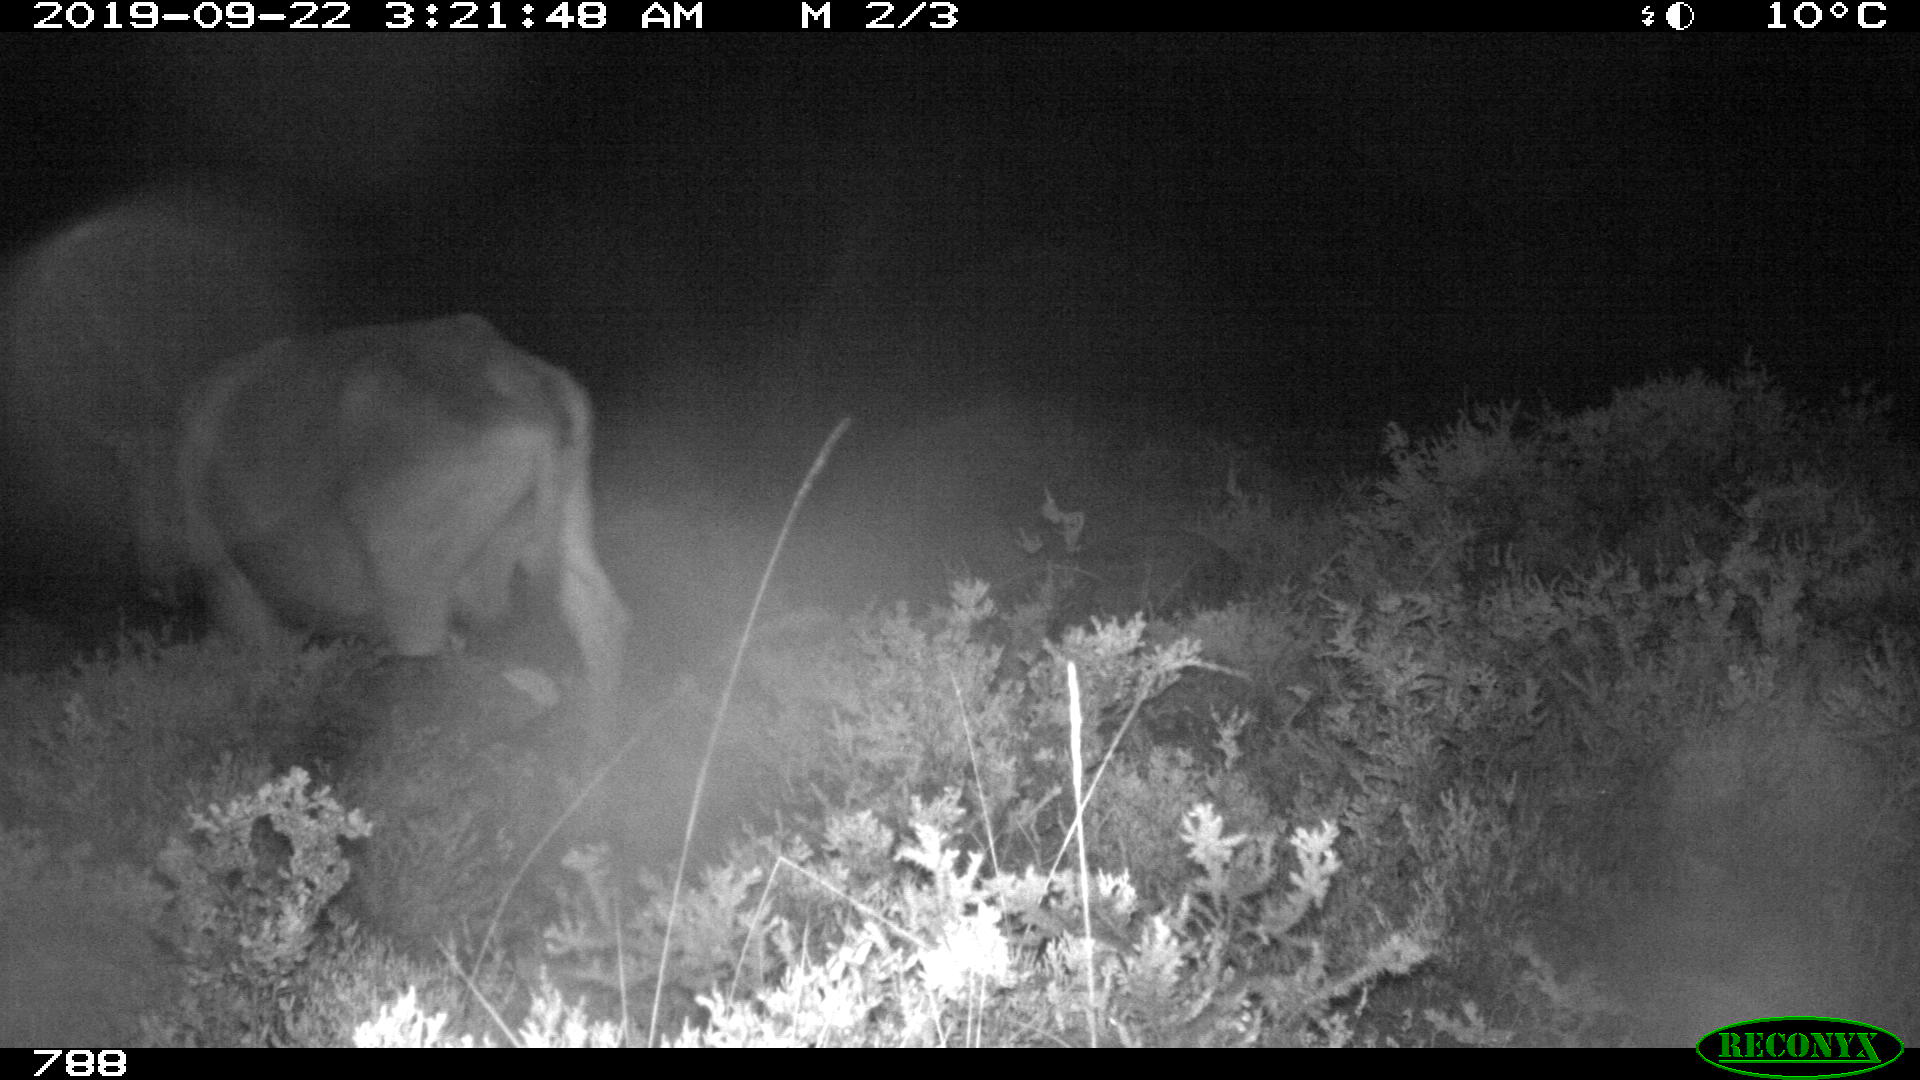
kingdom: Animalia
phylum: Chordata
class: Mammalia
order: Artiodactyla
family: Bovidae
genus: Bos
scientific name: Bos taurus
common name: Domesticated cattle
